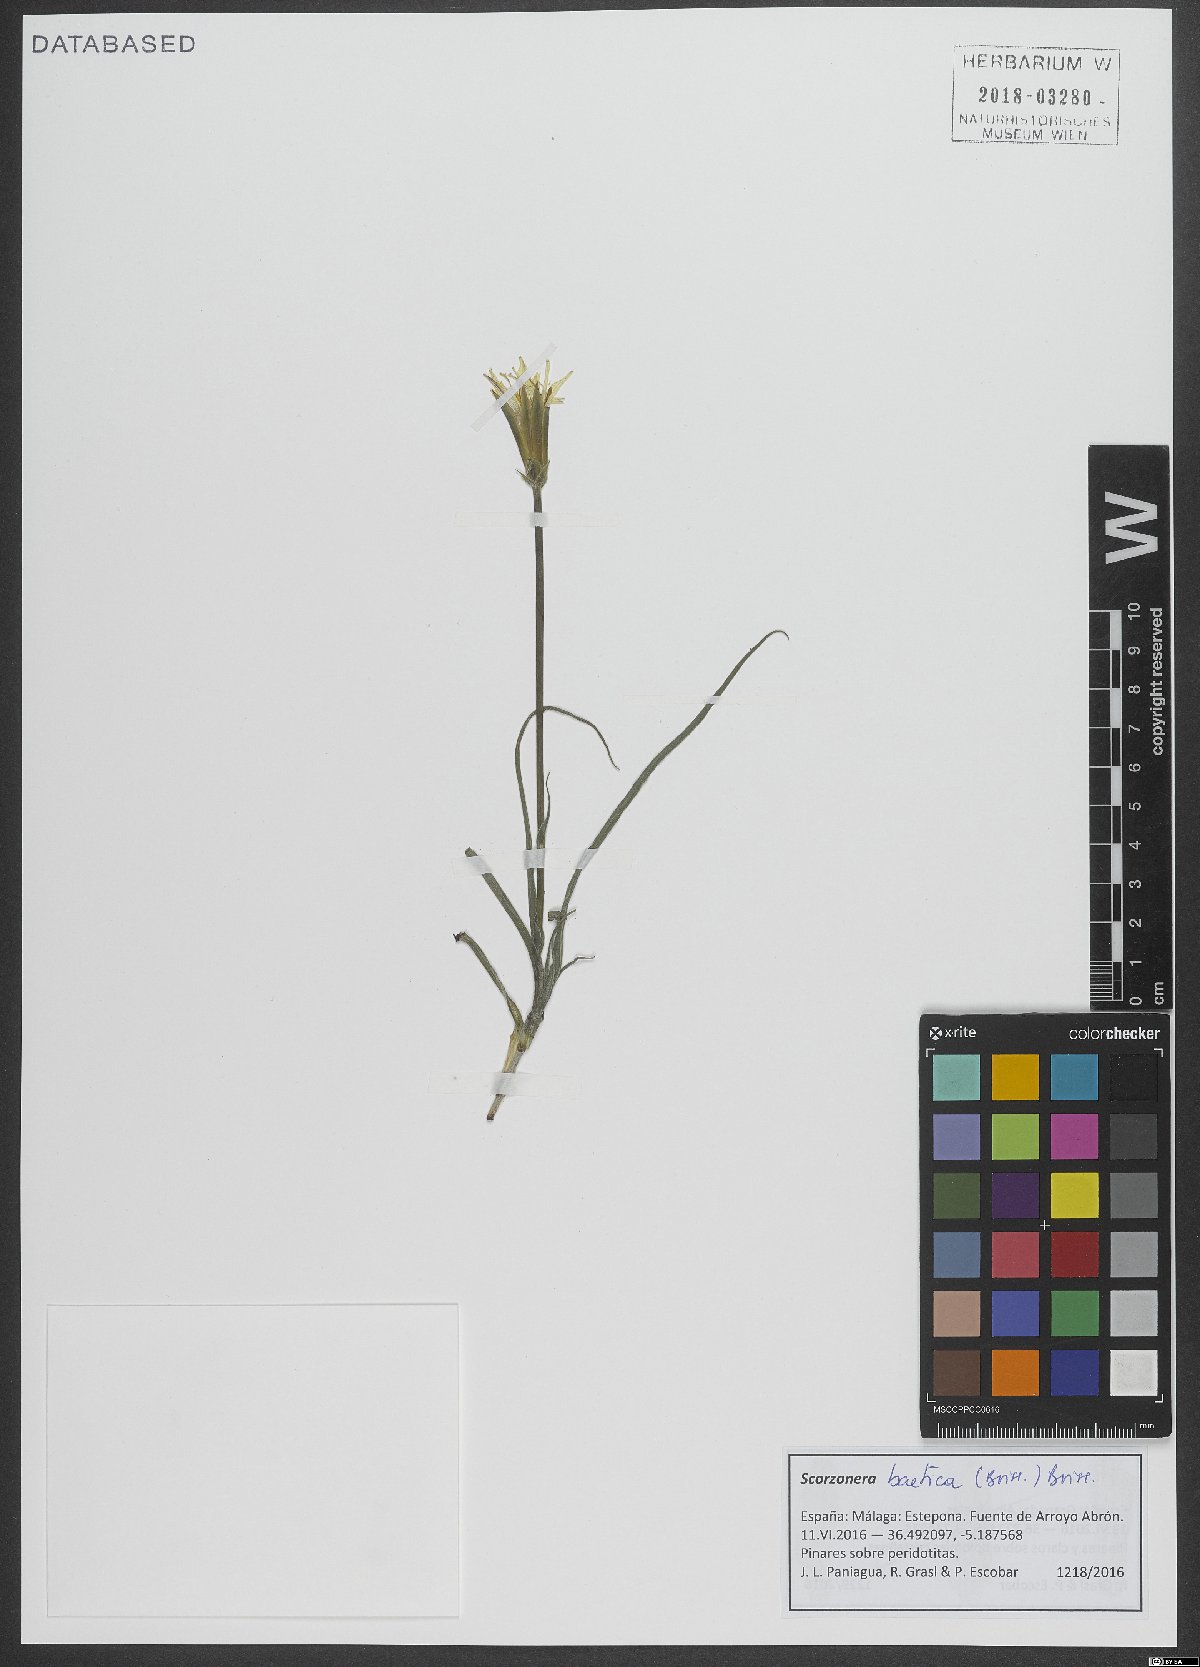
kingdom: Plantae
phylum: Tracheophyta
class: Magnoliopsida
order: Asterales
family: Asteraceae
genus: Scorzonera
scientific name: Scorzonera baetica
